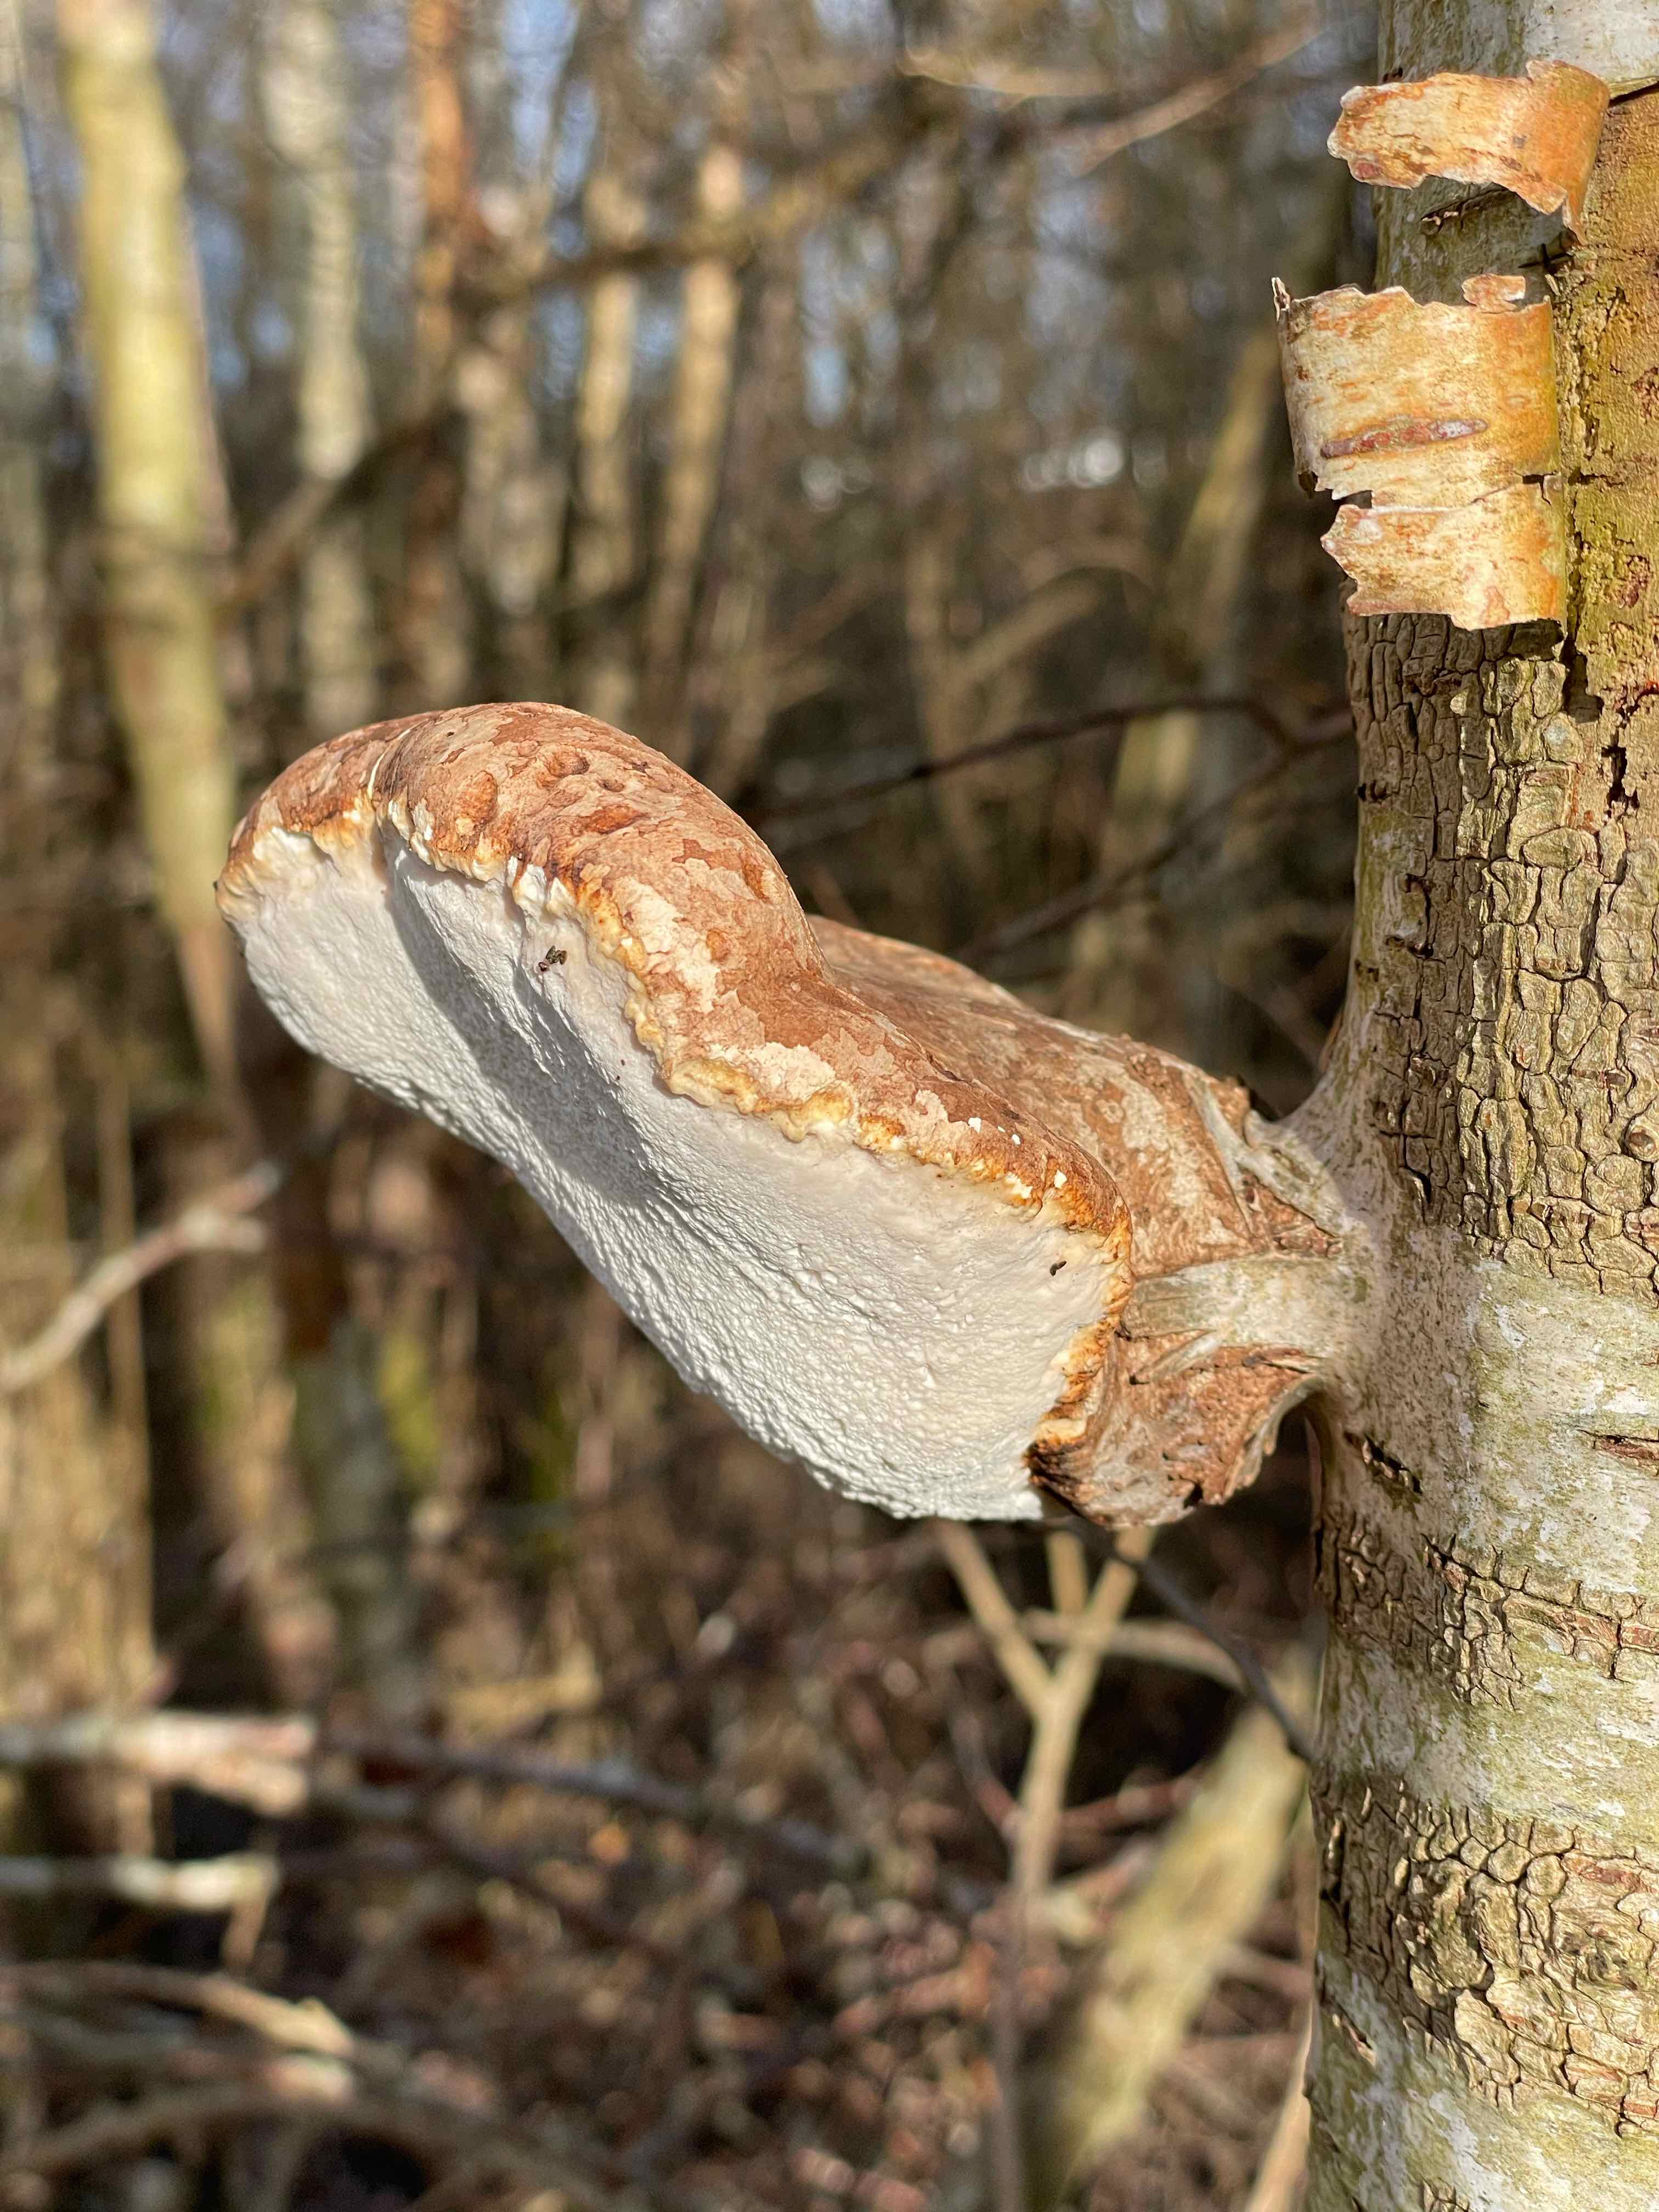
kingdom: Fungi
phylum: Basidiomycota
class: Agaricomycetes
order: Polyporales
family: Fomitopsidaceae
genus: Fomitopsis
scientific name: Fomitopsis betulina
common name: birkeporesvamp
